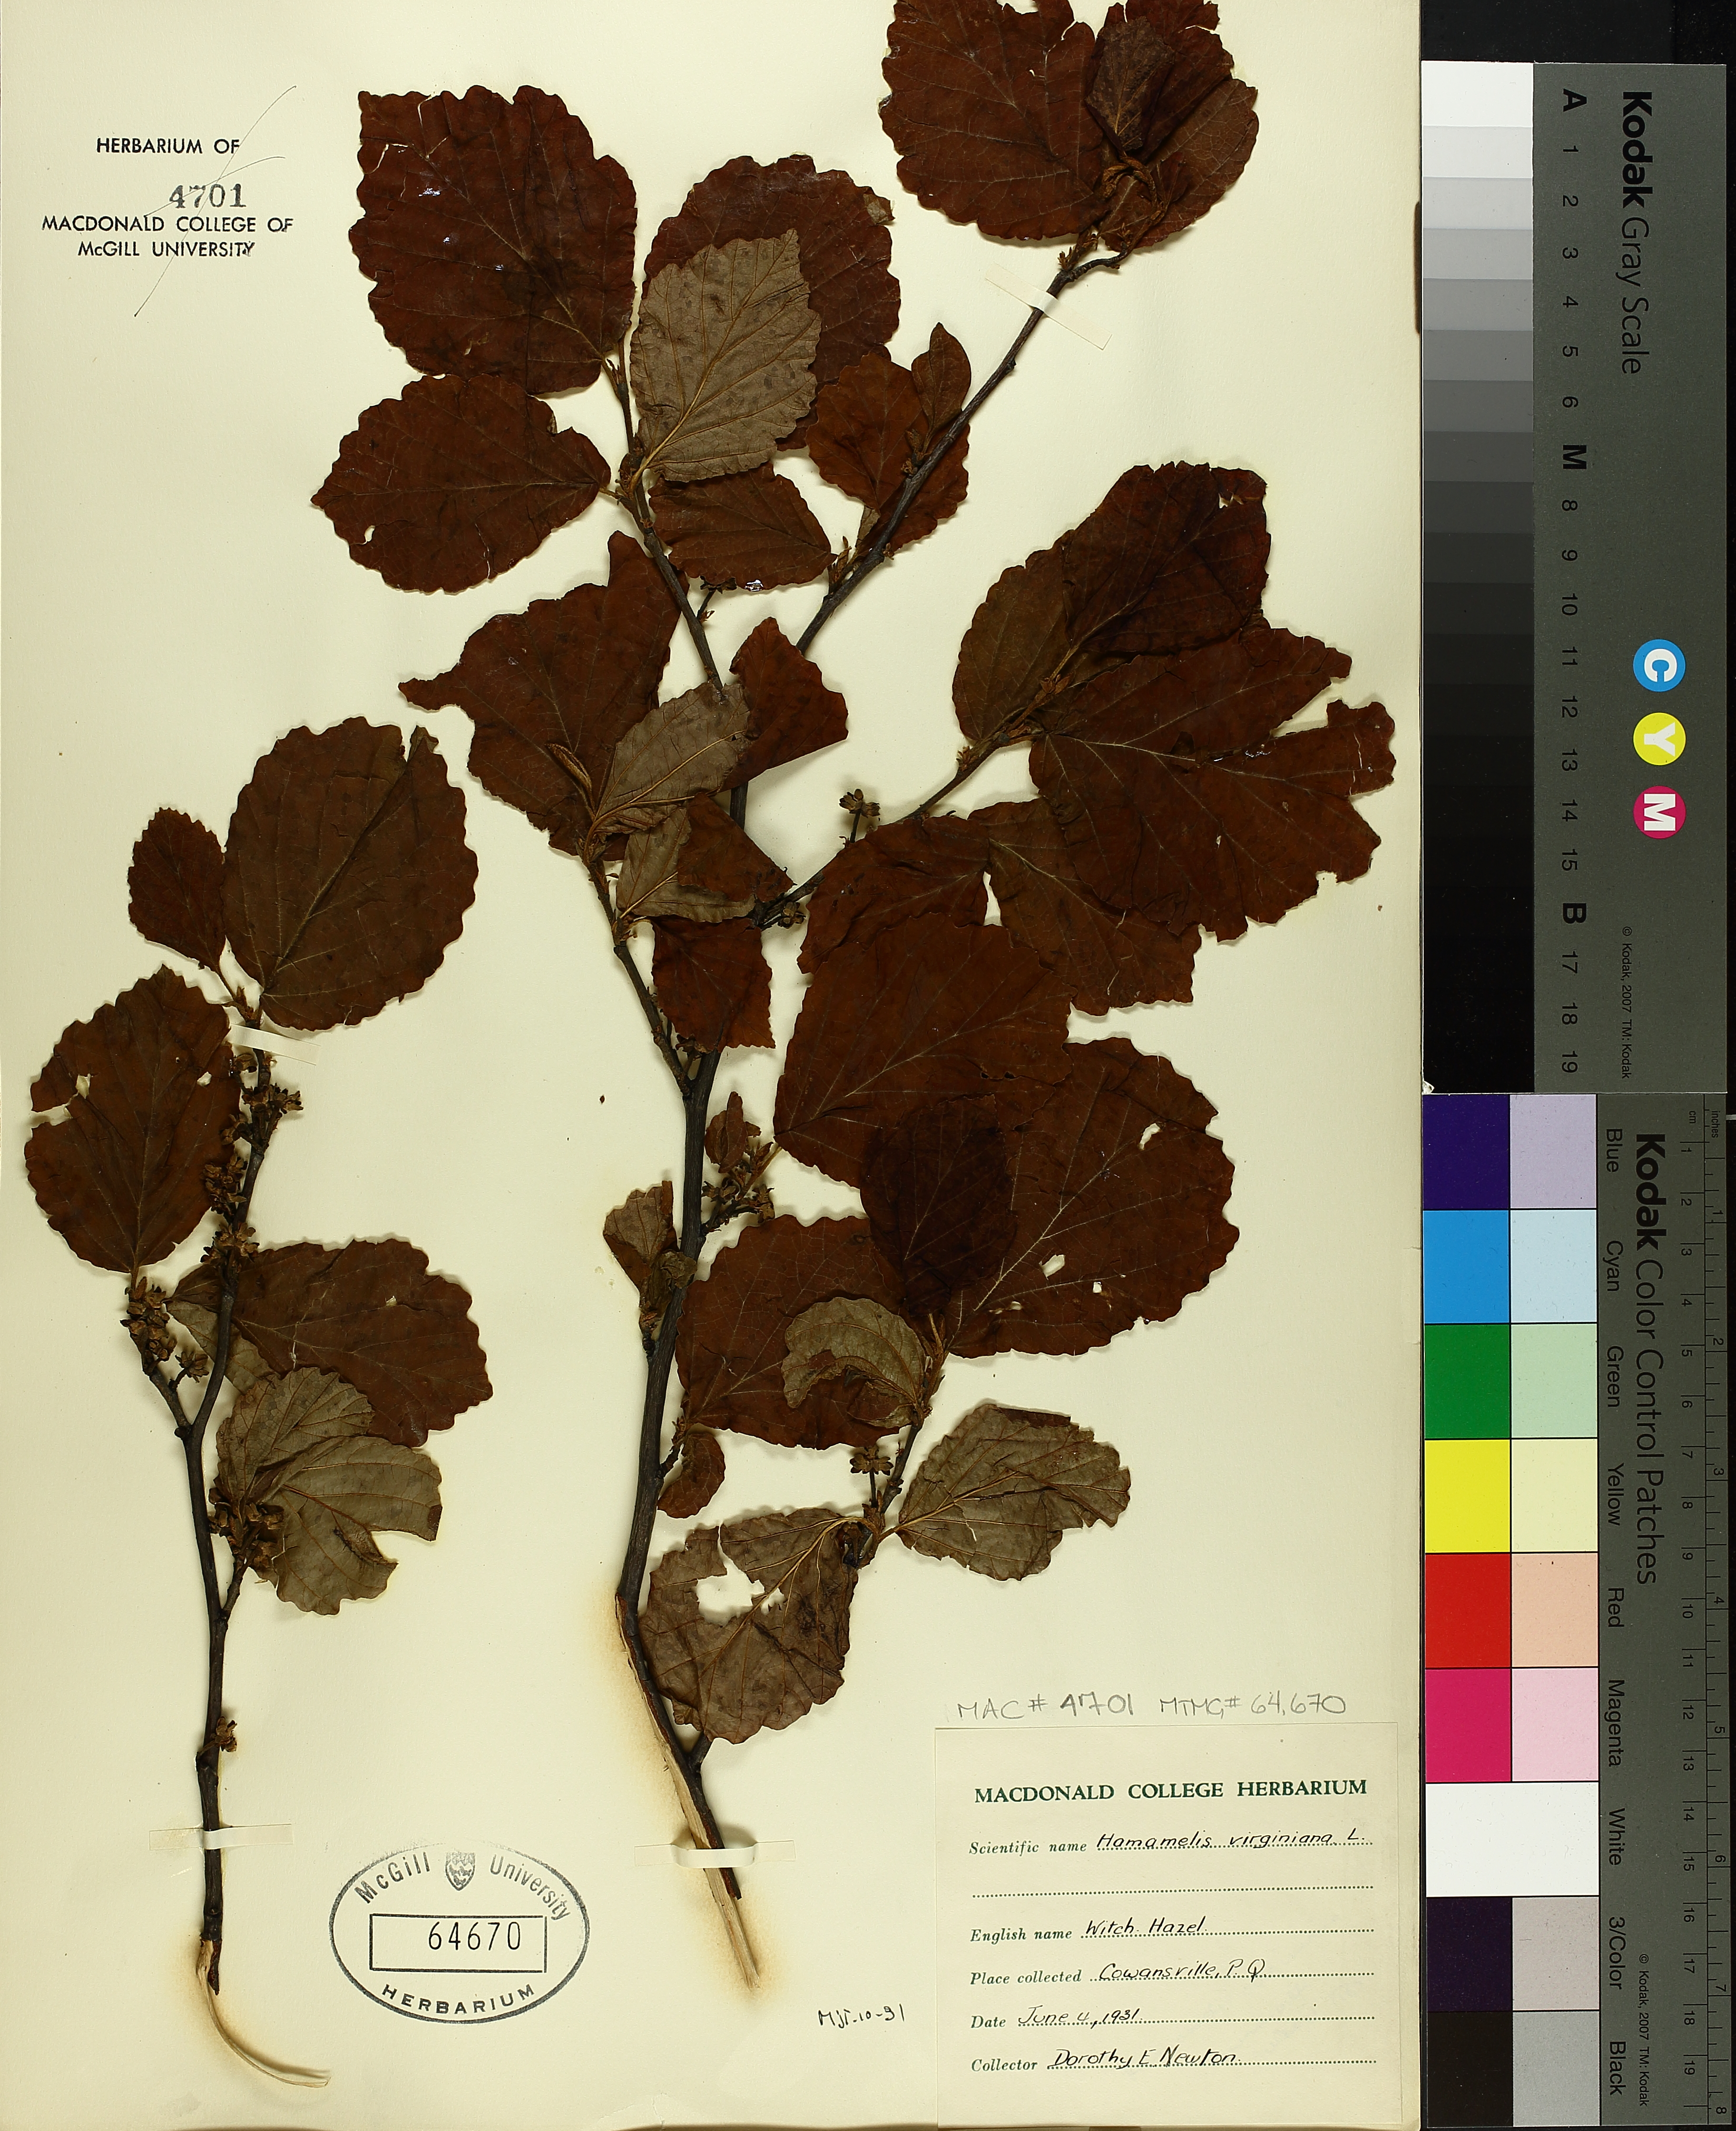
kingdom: Plantae
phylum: Tracheophyta
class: Magnoliopsida
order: Saxifragales
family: Hamamelidaceae
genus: Hamamelis
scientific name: Hamamelis virginiana
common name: Witch-hazel
